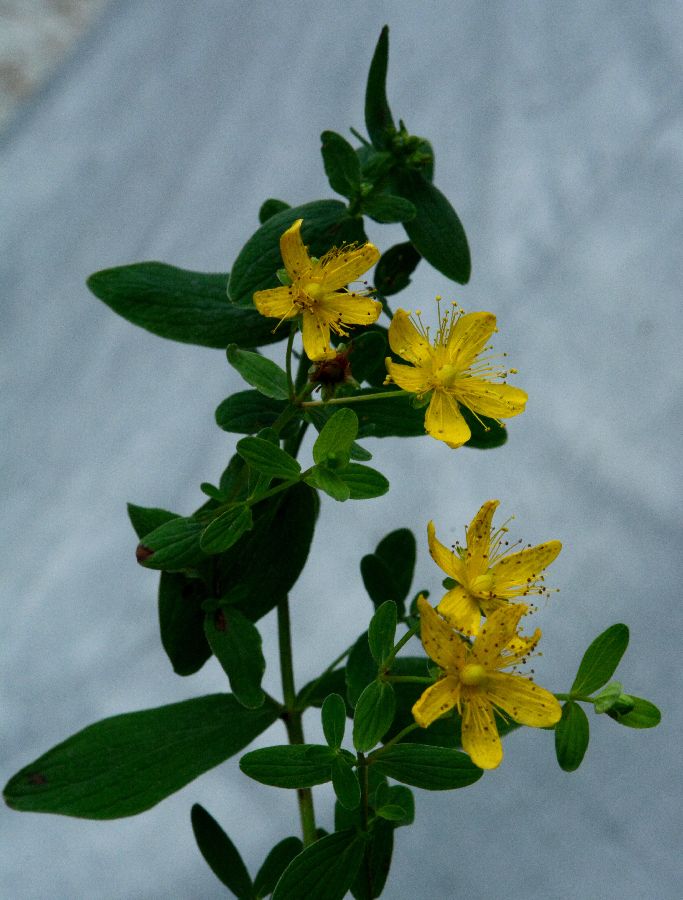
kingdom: Plantae
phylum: Tracheophyta
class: Magnoliopsida
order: Malpighiales
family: Hypericaceae
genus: Hypericum
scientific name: Hypericum maculatum
